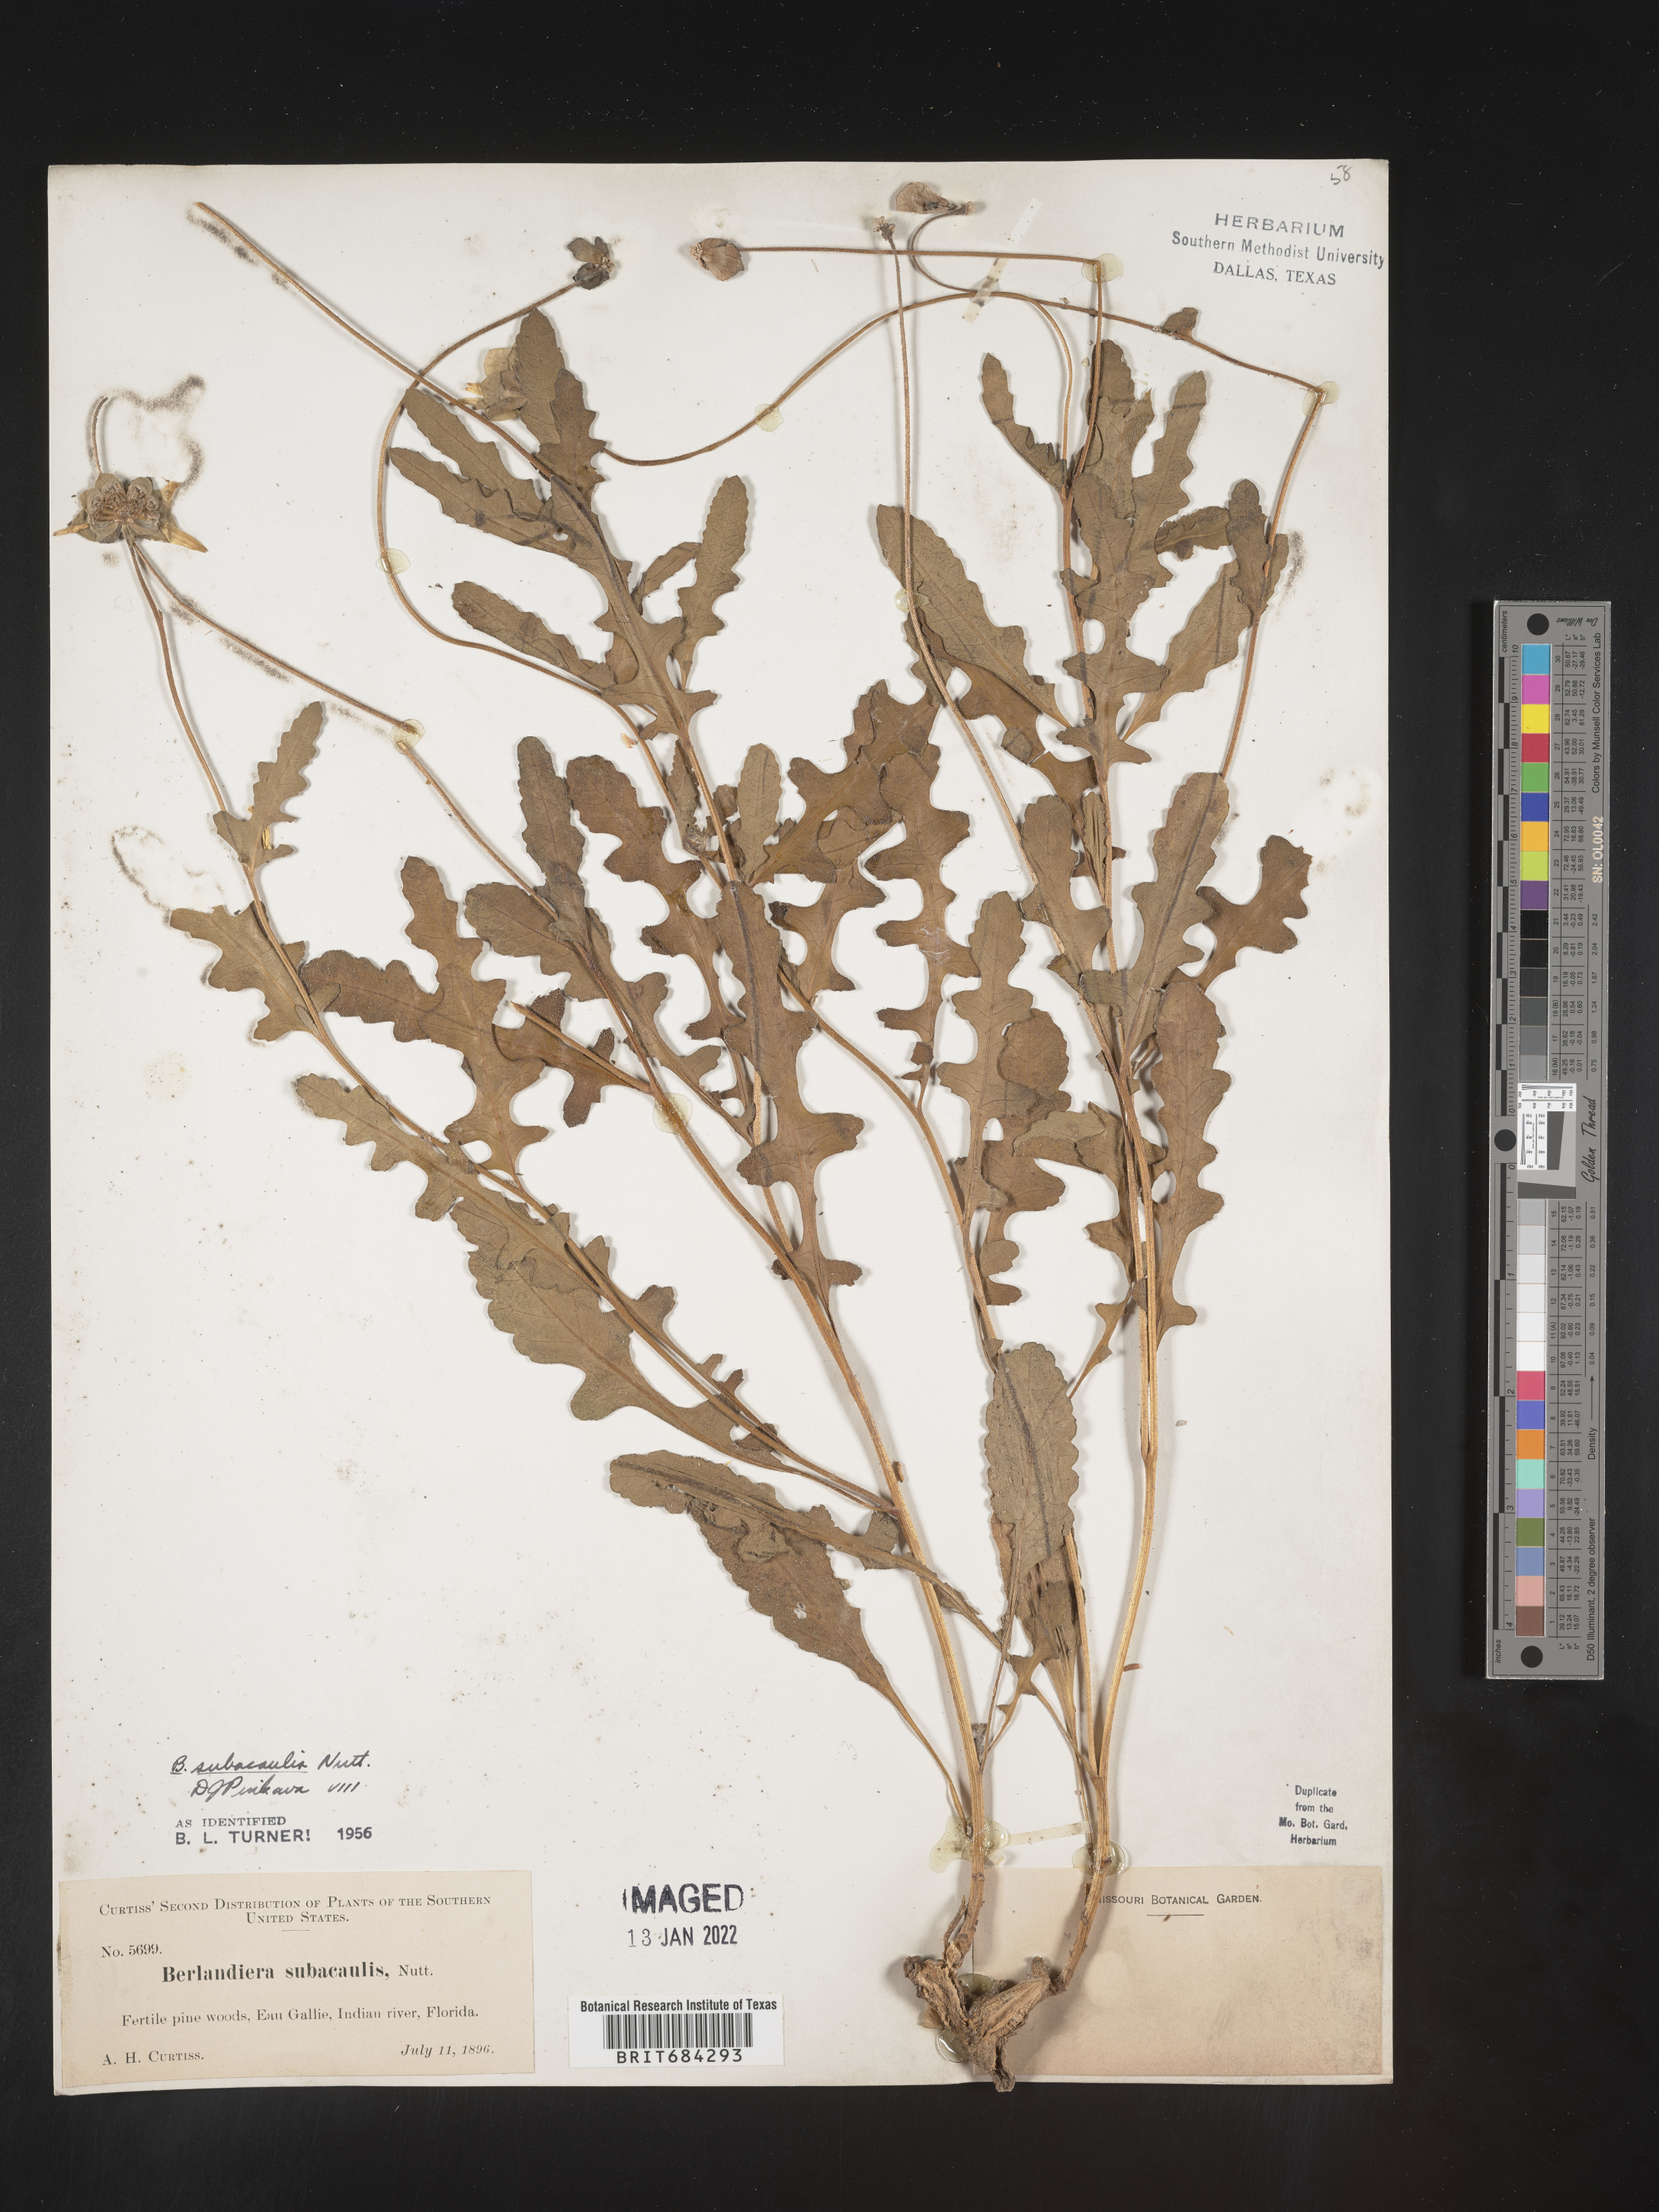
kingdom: Plantae
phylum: Tracheophyta
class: Magnoliopsida
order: Asterales
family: Asteraceae
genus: Berlandiera
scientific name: Berlandiera subacaulis
